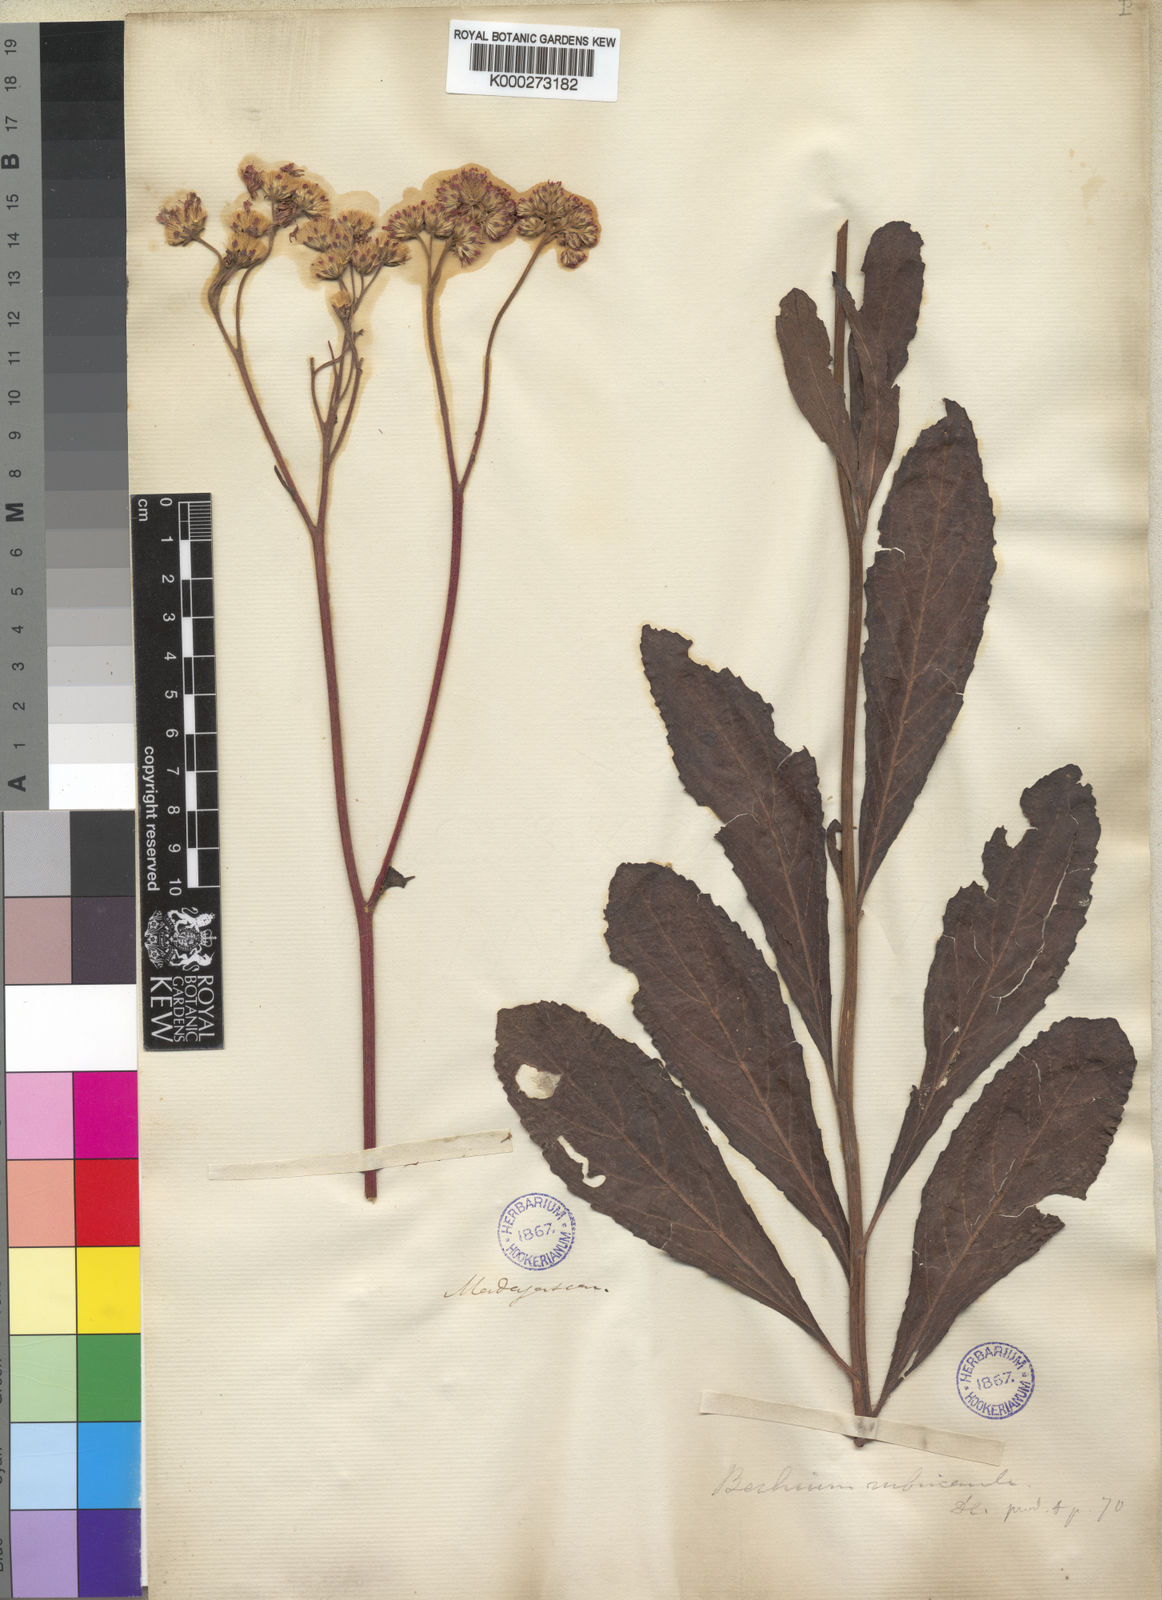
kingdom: Plantae
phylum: Tracheophyta
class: Magnoliopsida
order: Asterales
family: Asteraceae
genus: Bechium
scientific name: Bechium rubricaule
